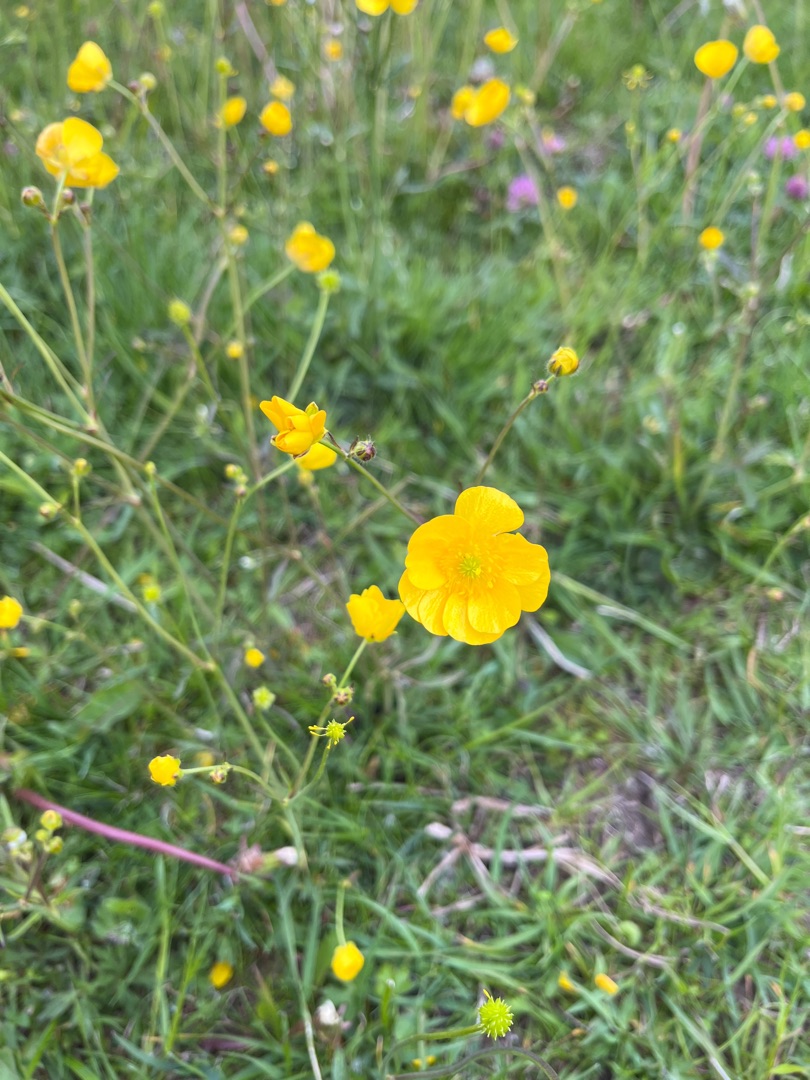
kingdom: Plantae
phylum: Tracheophyta
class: Magnoliopsida
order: Ranunculales
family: Ranunculaceae
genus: Ranunculus
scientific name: Ranunculus acris
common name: Bidende ranunkel
